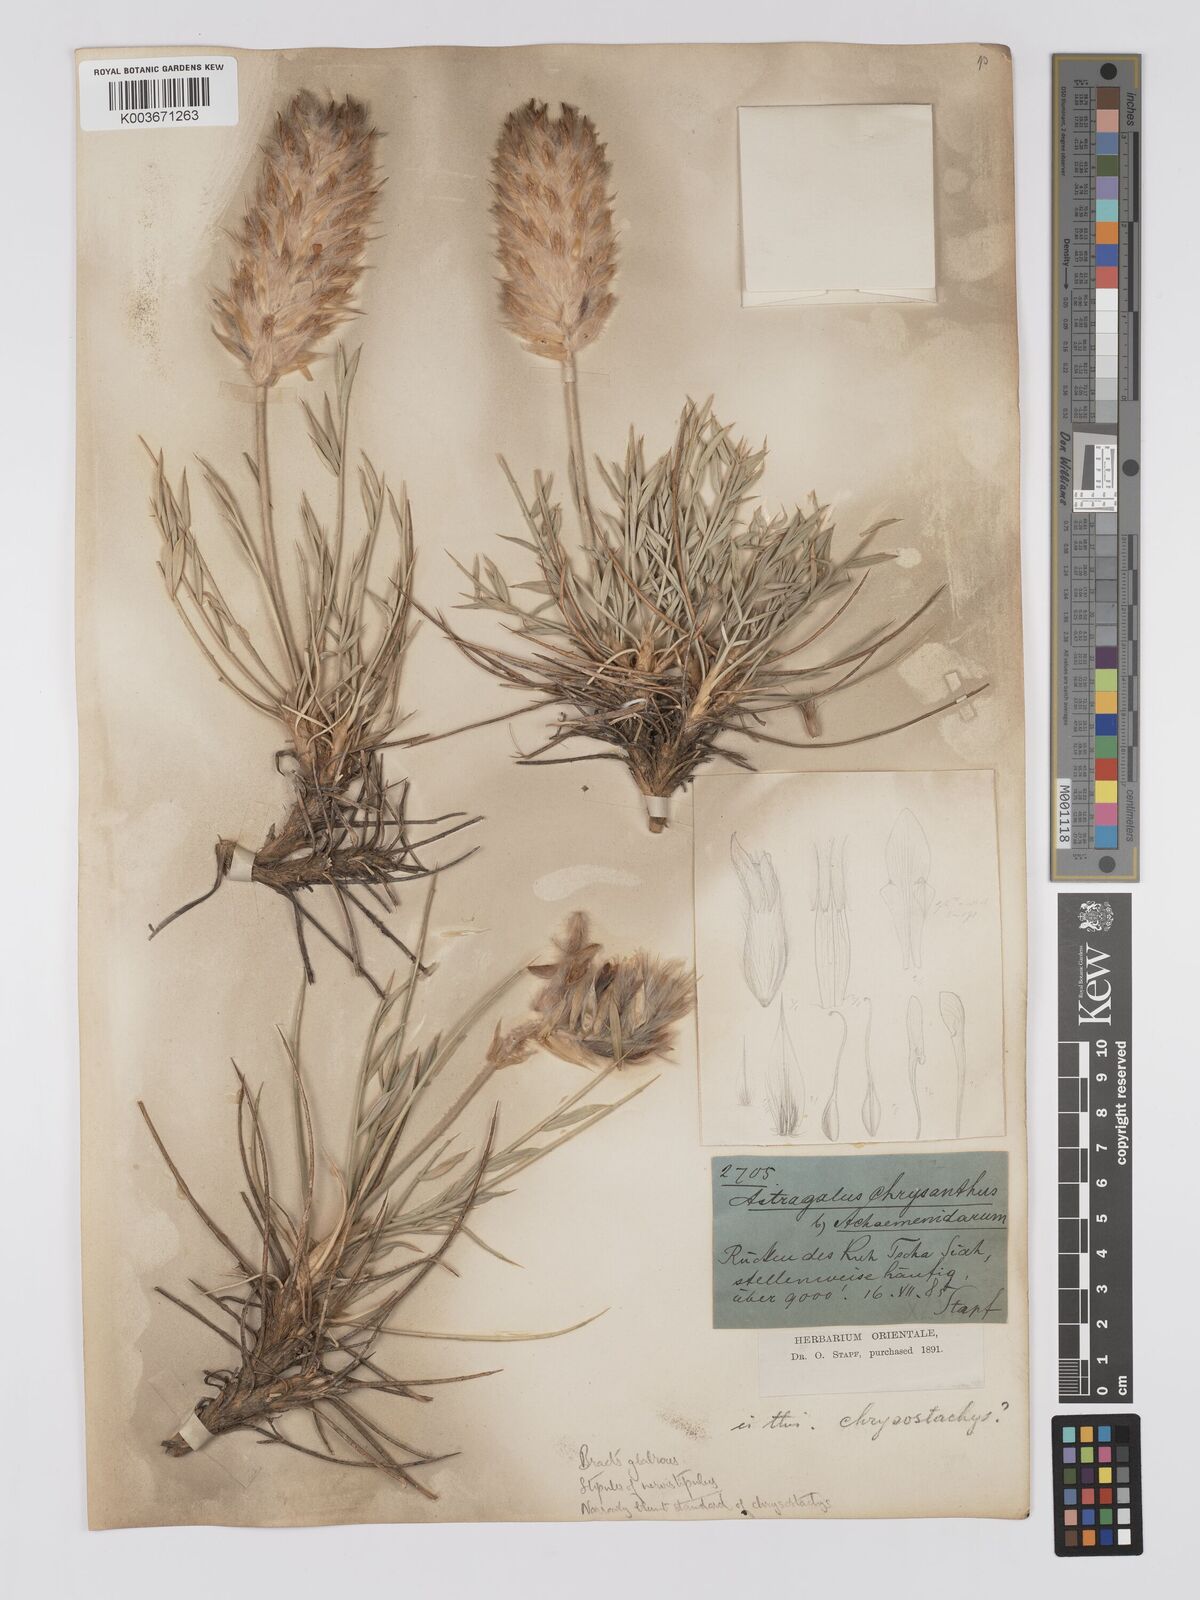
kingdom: Plantae
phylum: Tracheophyta
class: Magnoliopsida
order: Fabales
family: Fabaceae
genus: Astragalus
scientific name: Astragalus chrysostachys
